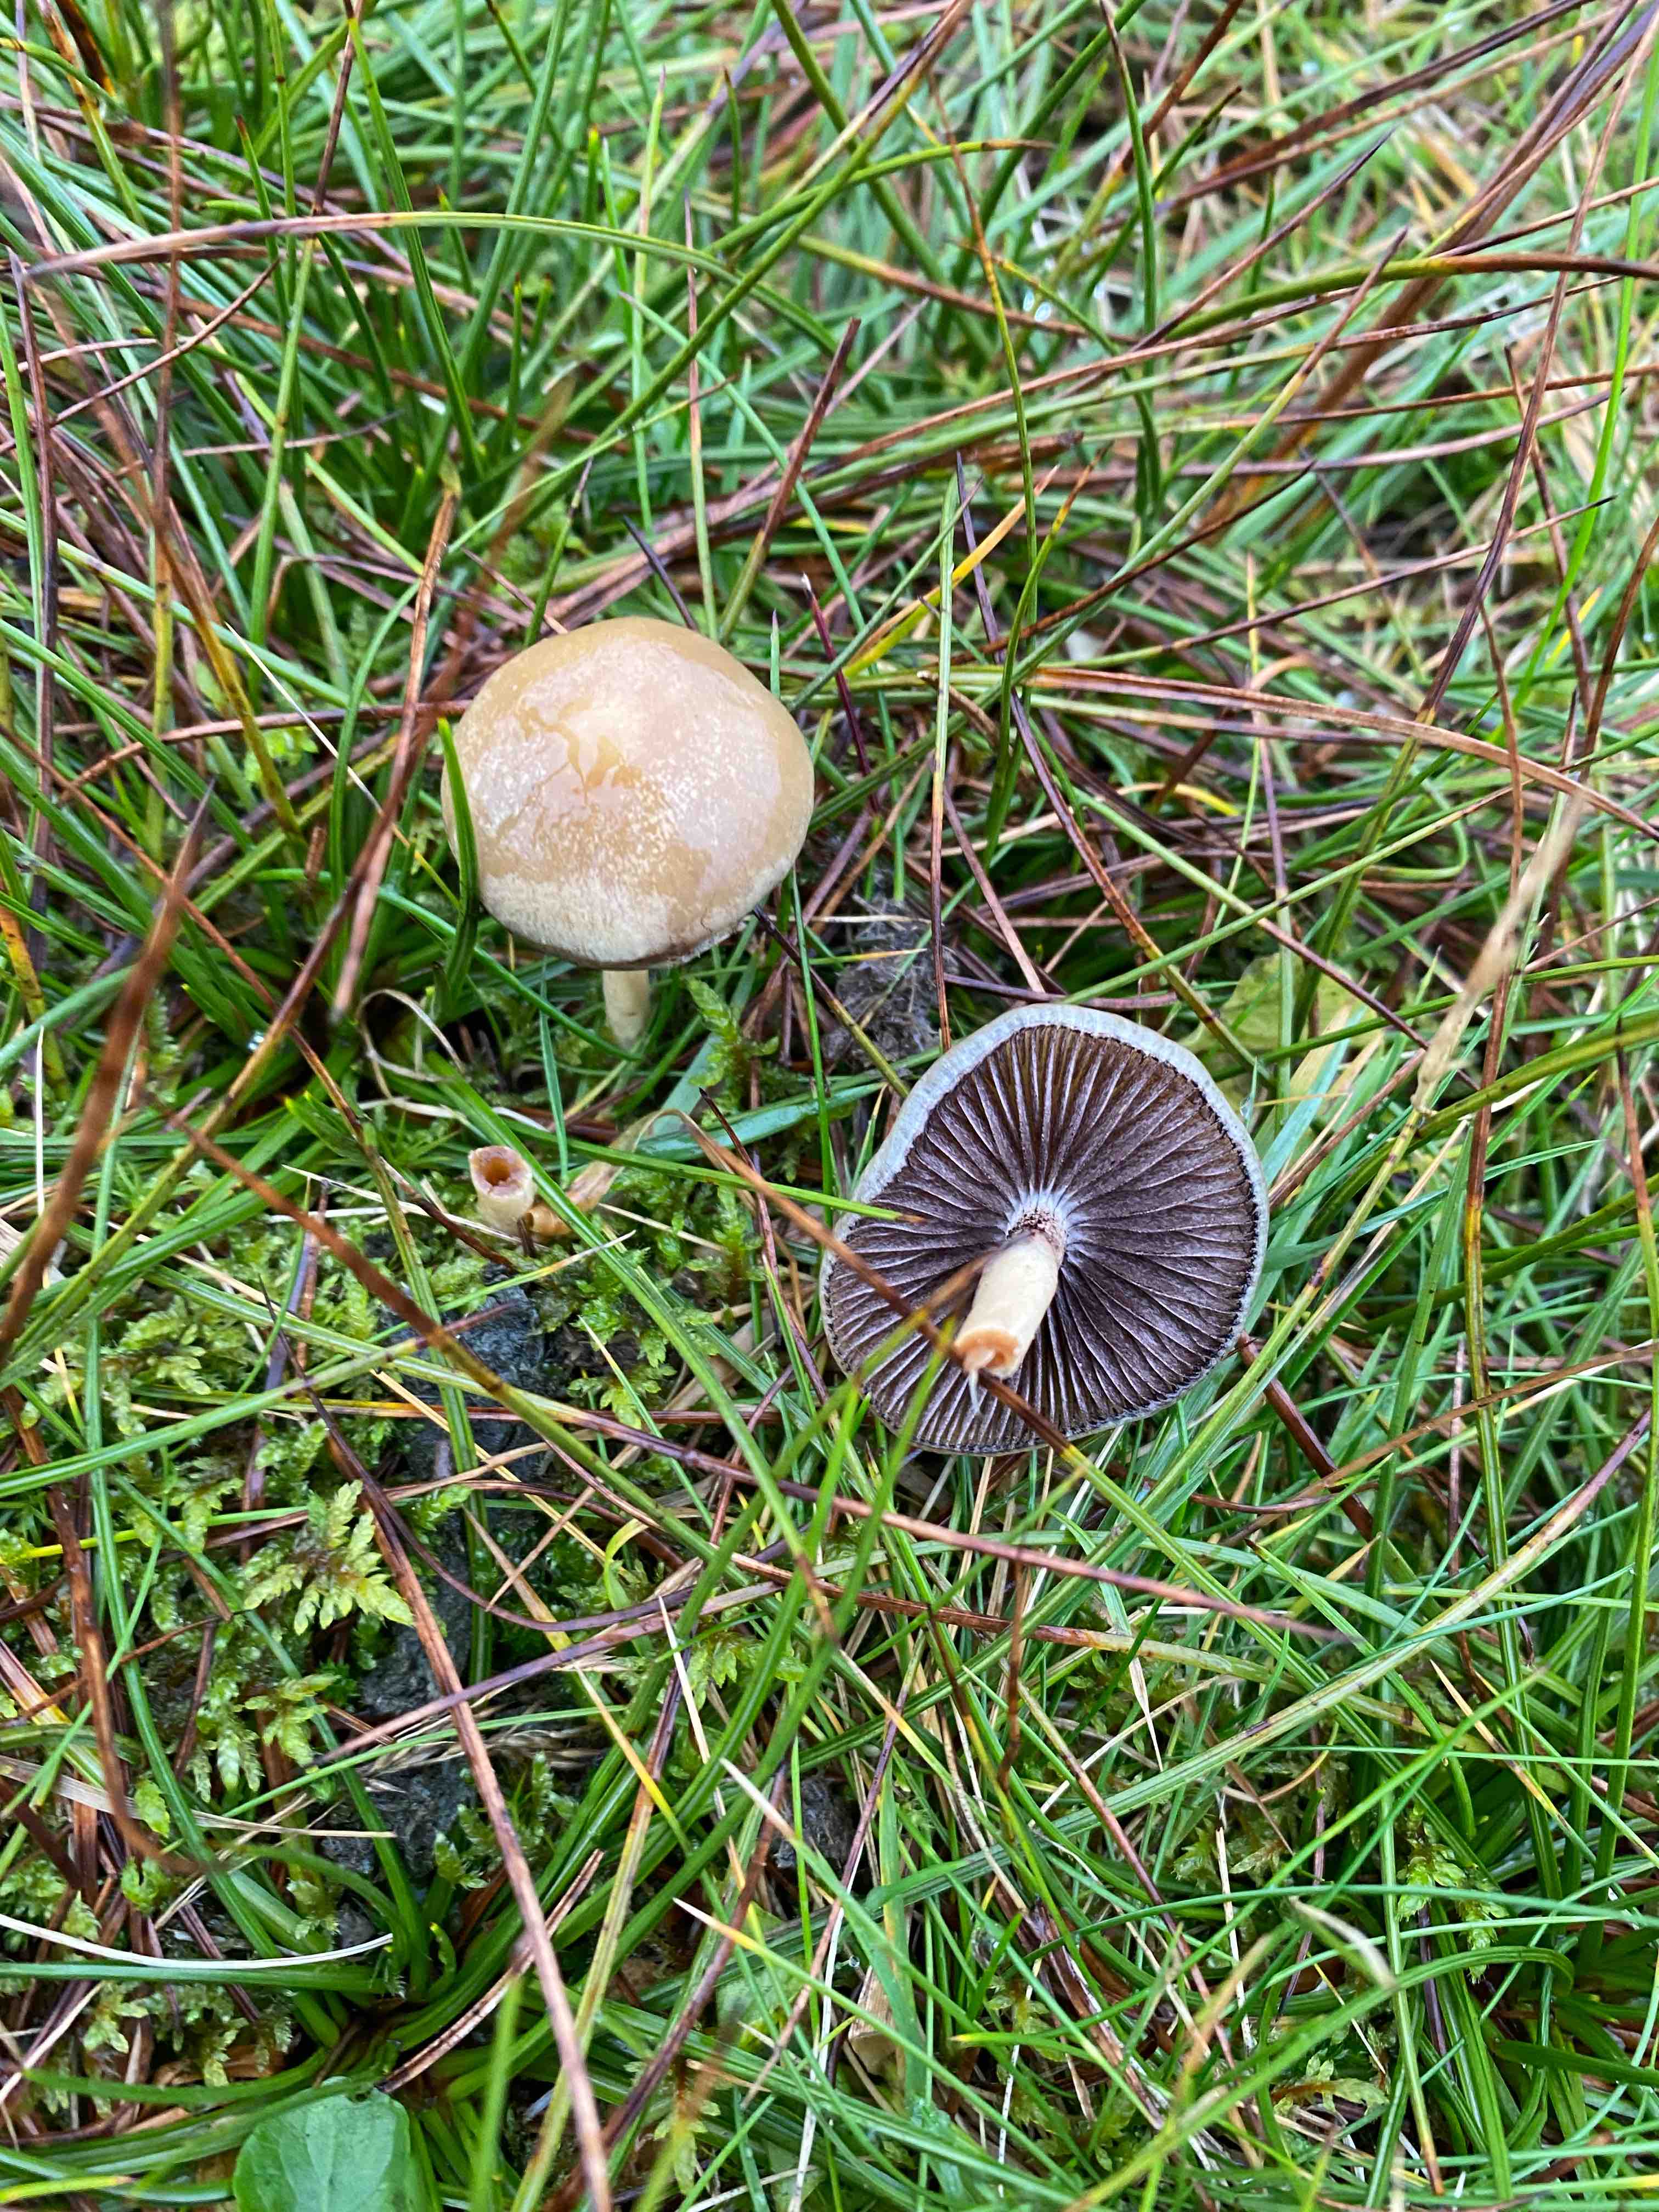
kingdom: Fungi
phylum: Basidiomycota
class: Agaricomycetes
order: Agaricales
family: Strophariaceae
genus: Protostropharia
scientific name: Protostropharia
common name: bredblad
